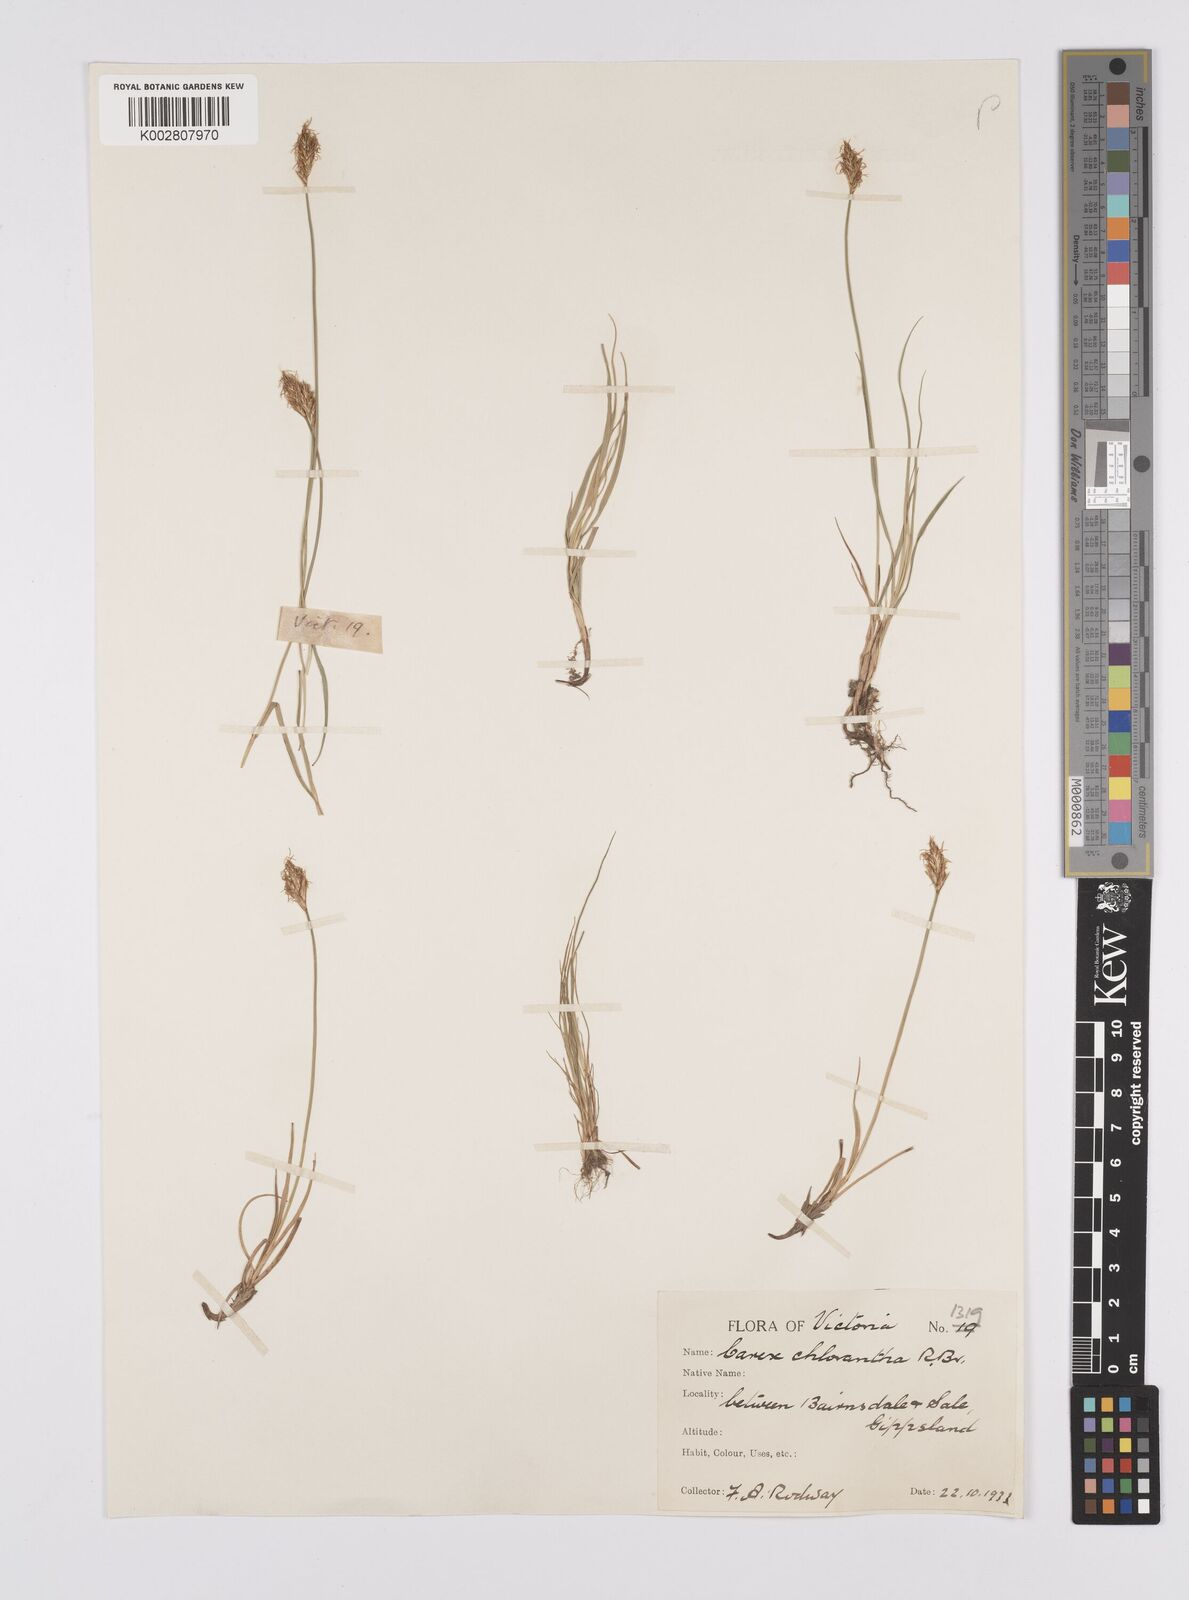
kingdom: Plantae
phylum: Tracheophyta
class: Liliopsida
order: Poales
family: Cyperaceae
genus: Carex
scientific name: Carex chlorantha
